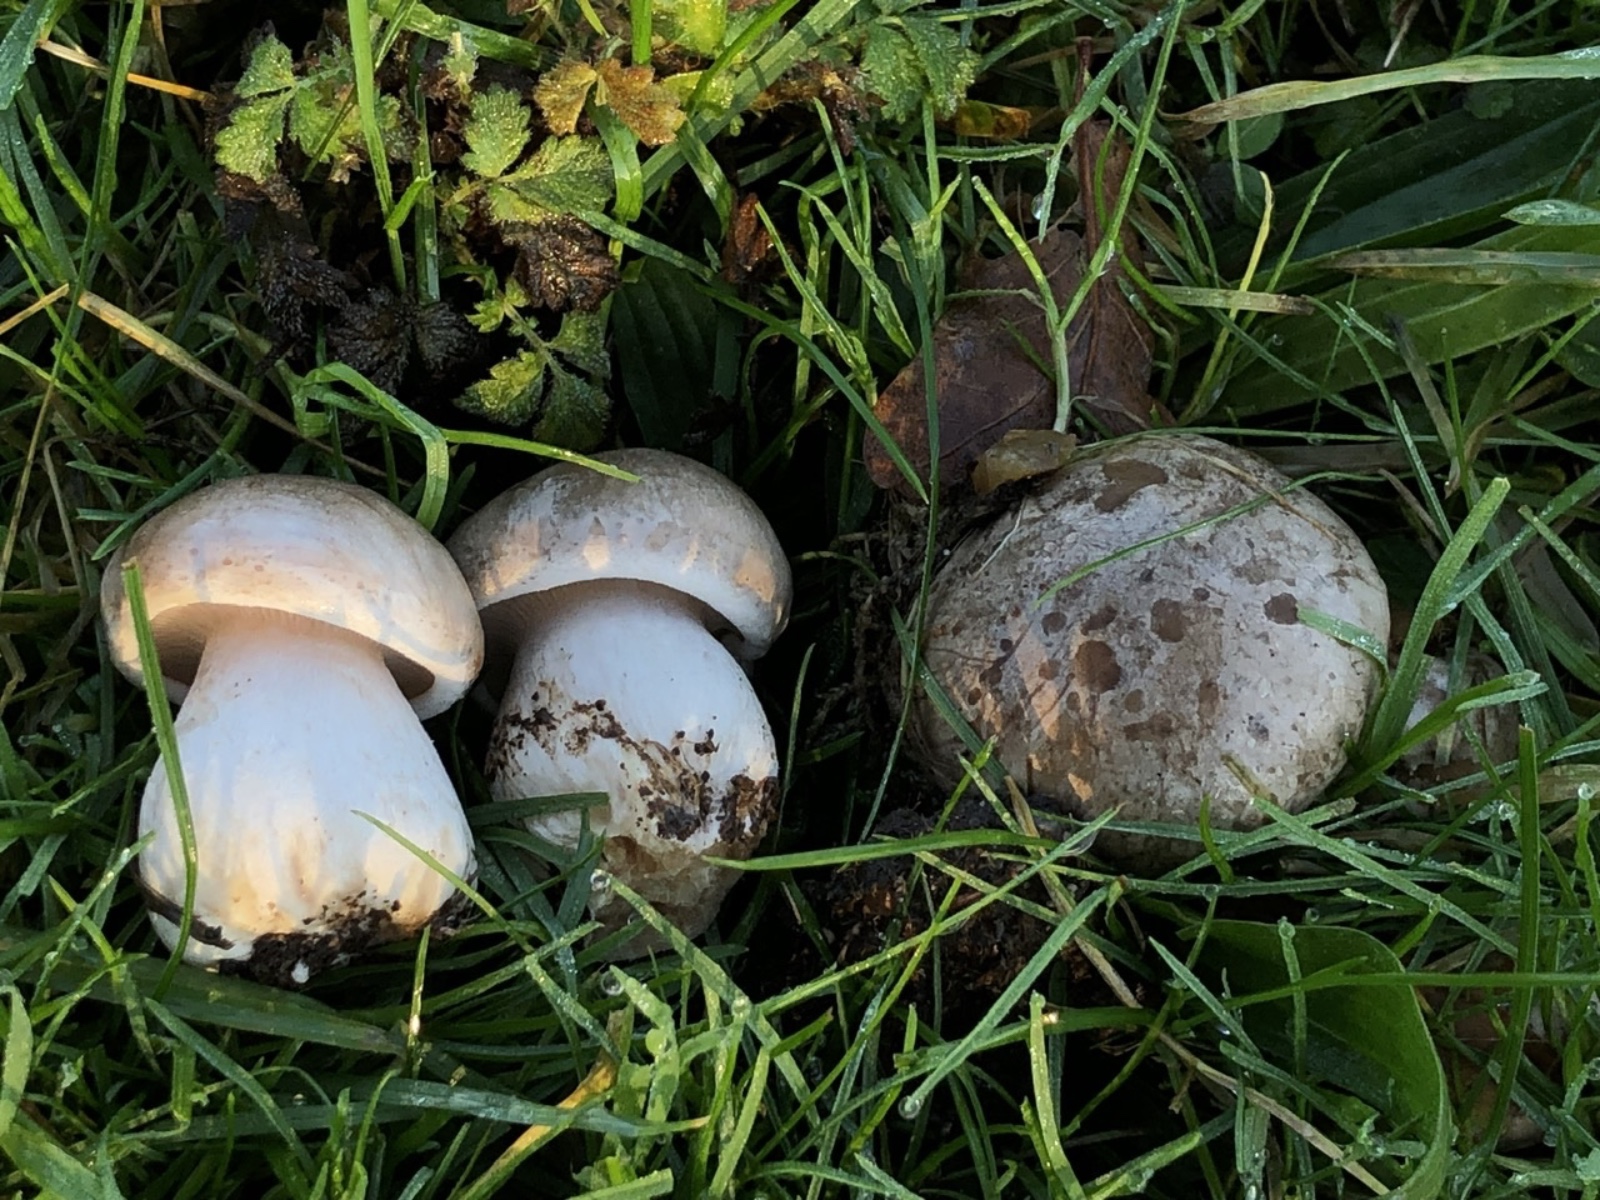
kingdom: Fungi
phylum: Basidiomycota
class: Agaricomycetes
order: Agaricales
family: Tricholomataceae
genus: Lepista
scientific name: Lepista panaeolus
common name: marmoreret hekseringshat
